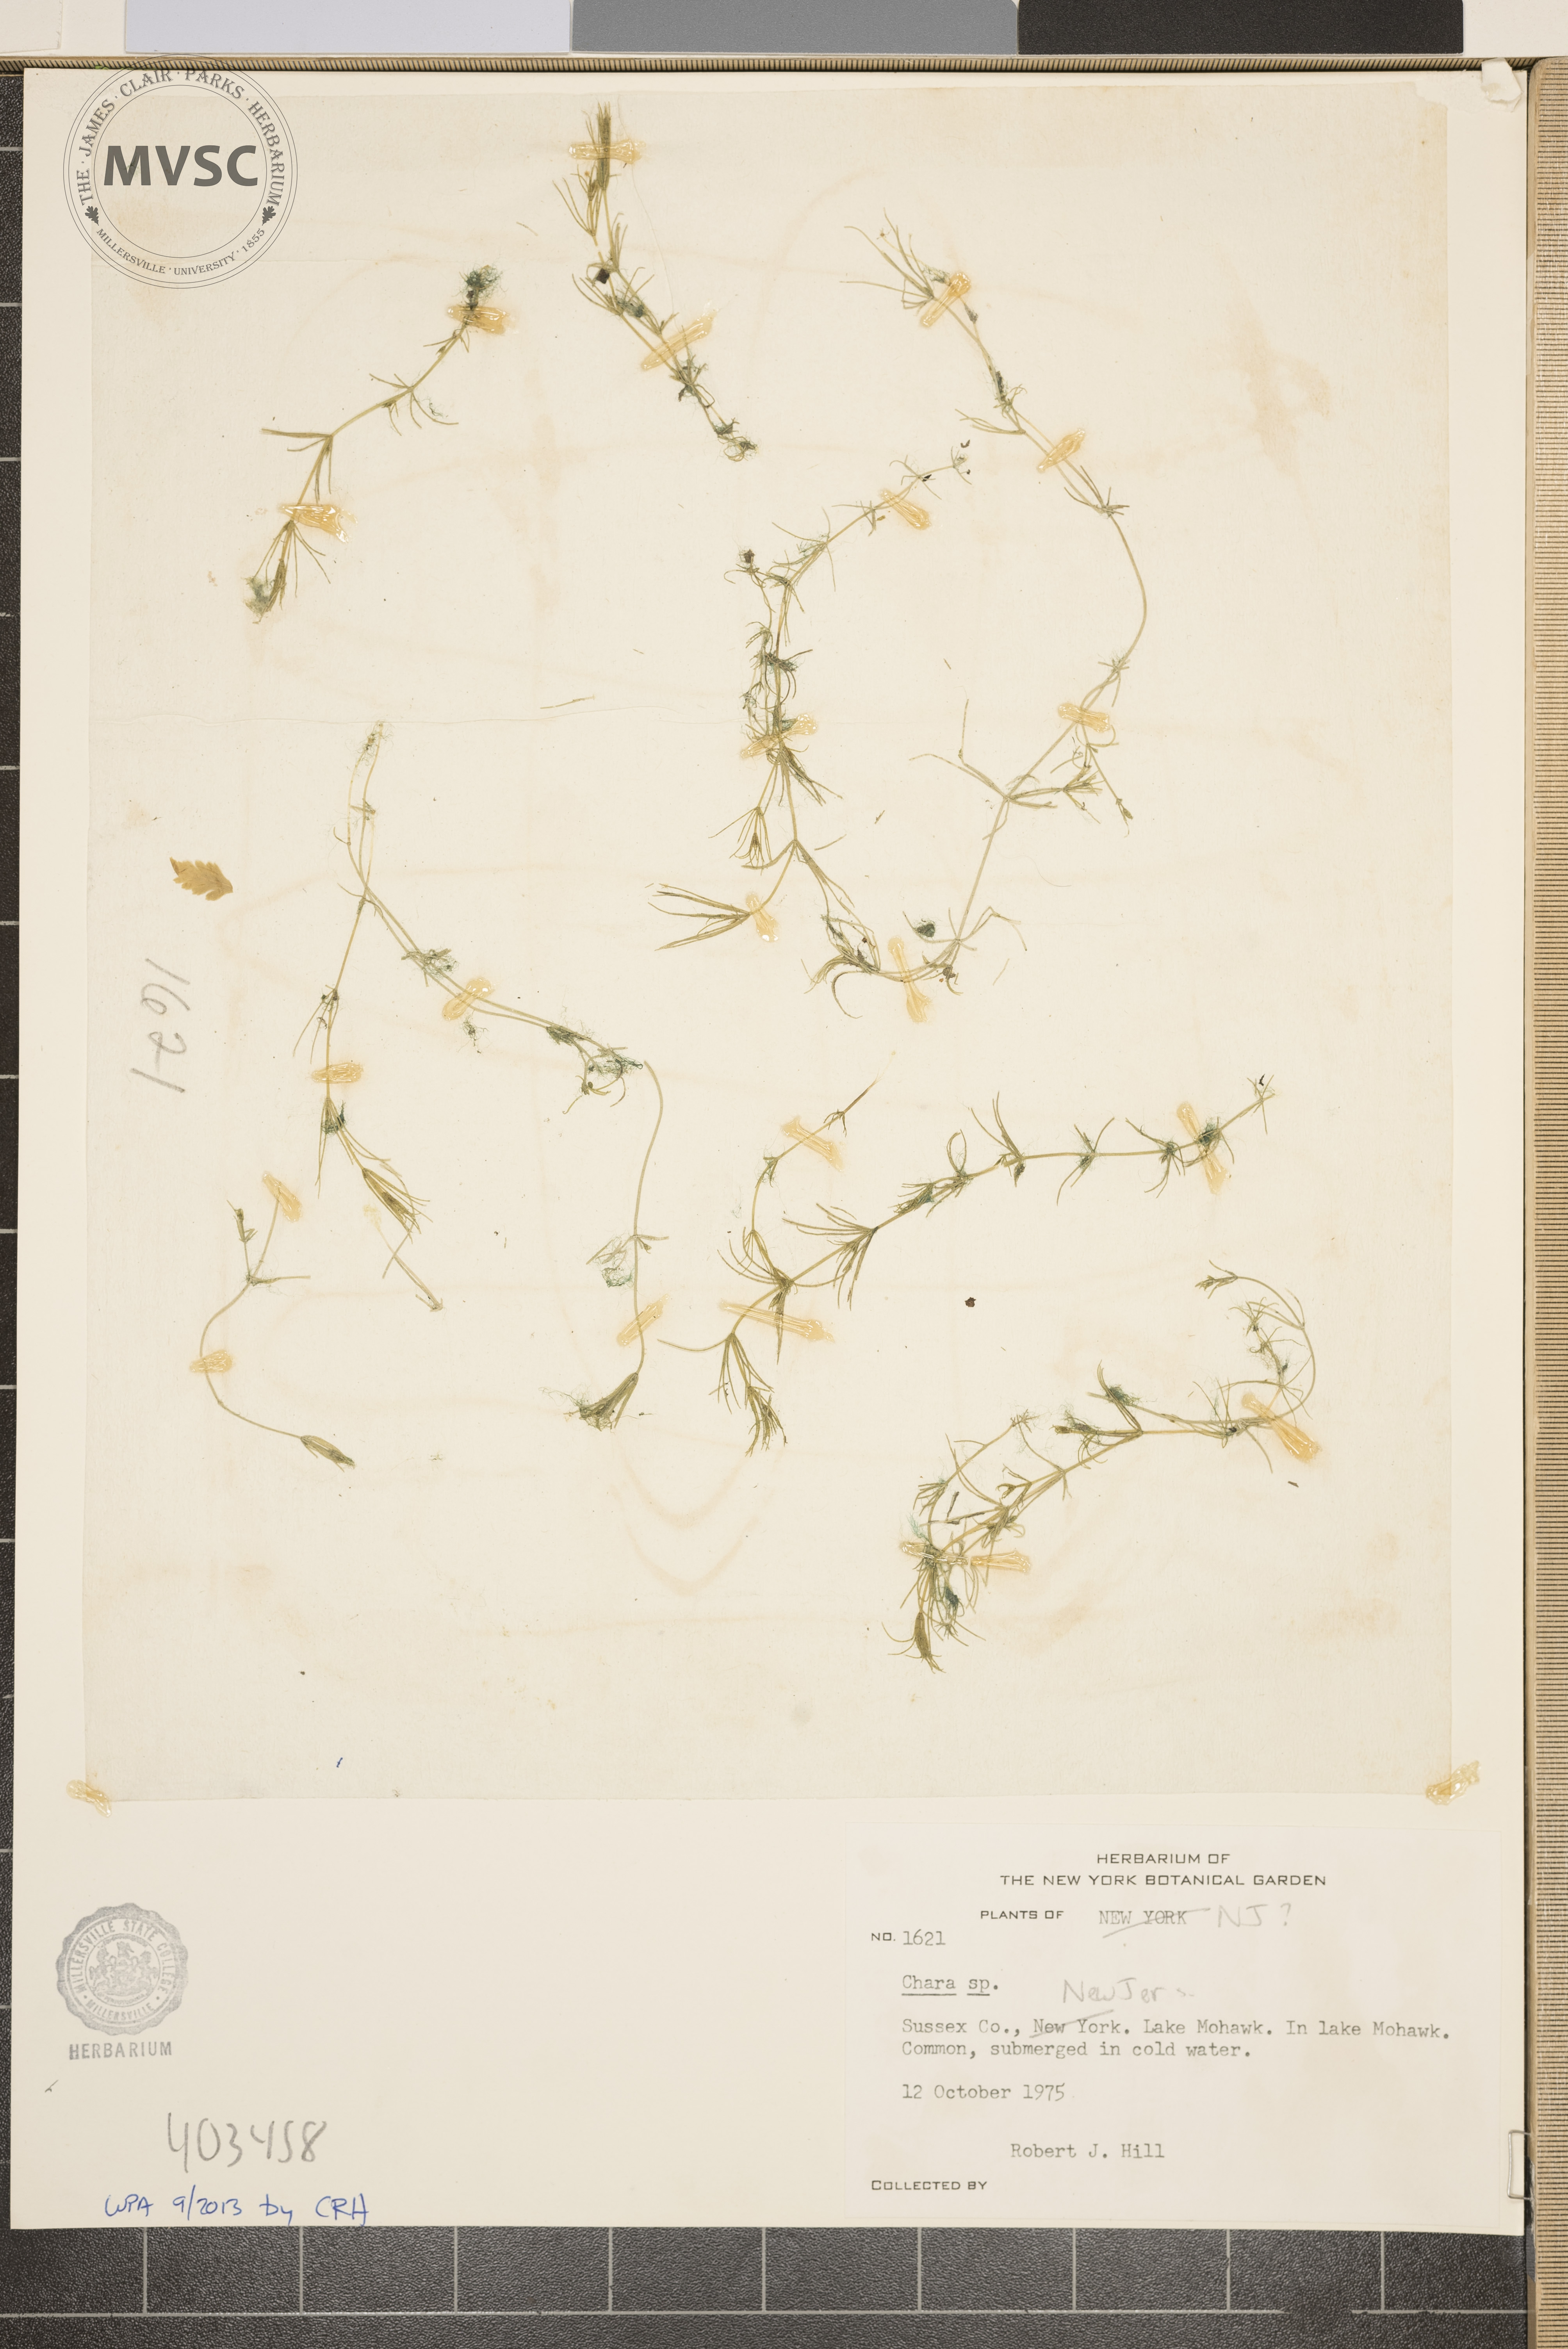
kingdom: Plantae
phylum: Charophyta
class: Charophyceae
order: Charales
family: Characeae
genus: Chara
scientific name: Chara
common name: Stonewort
